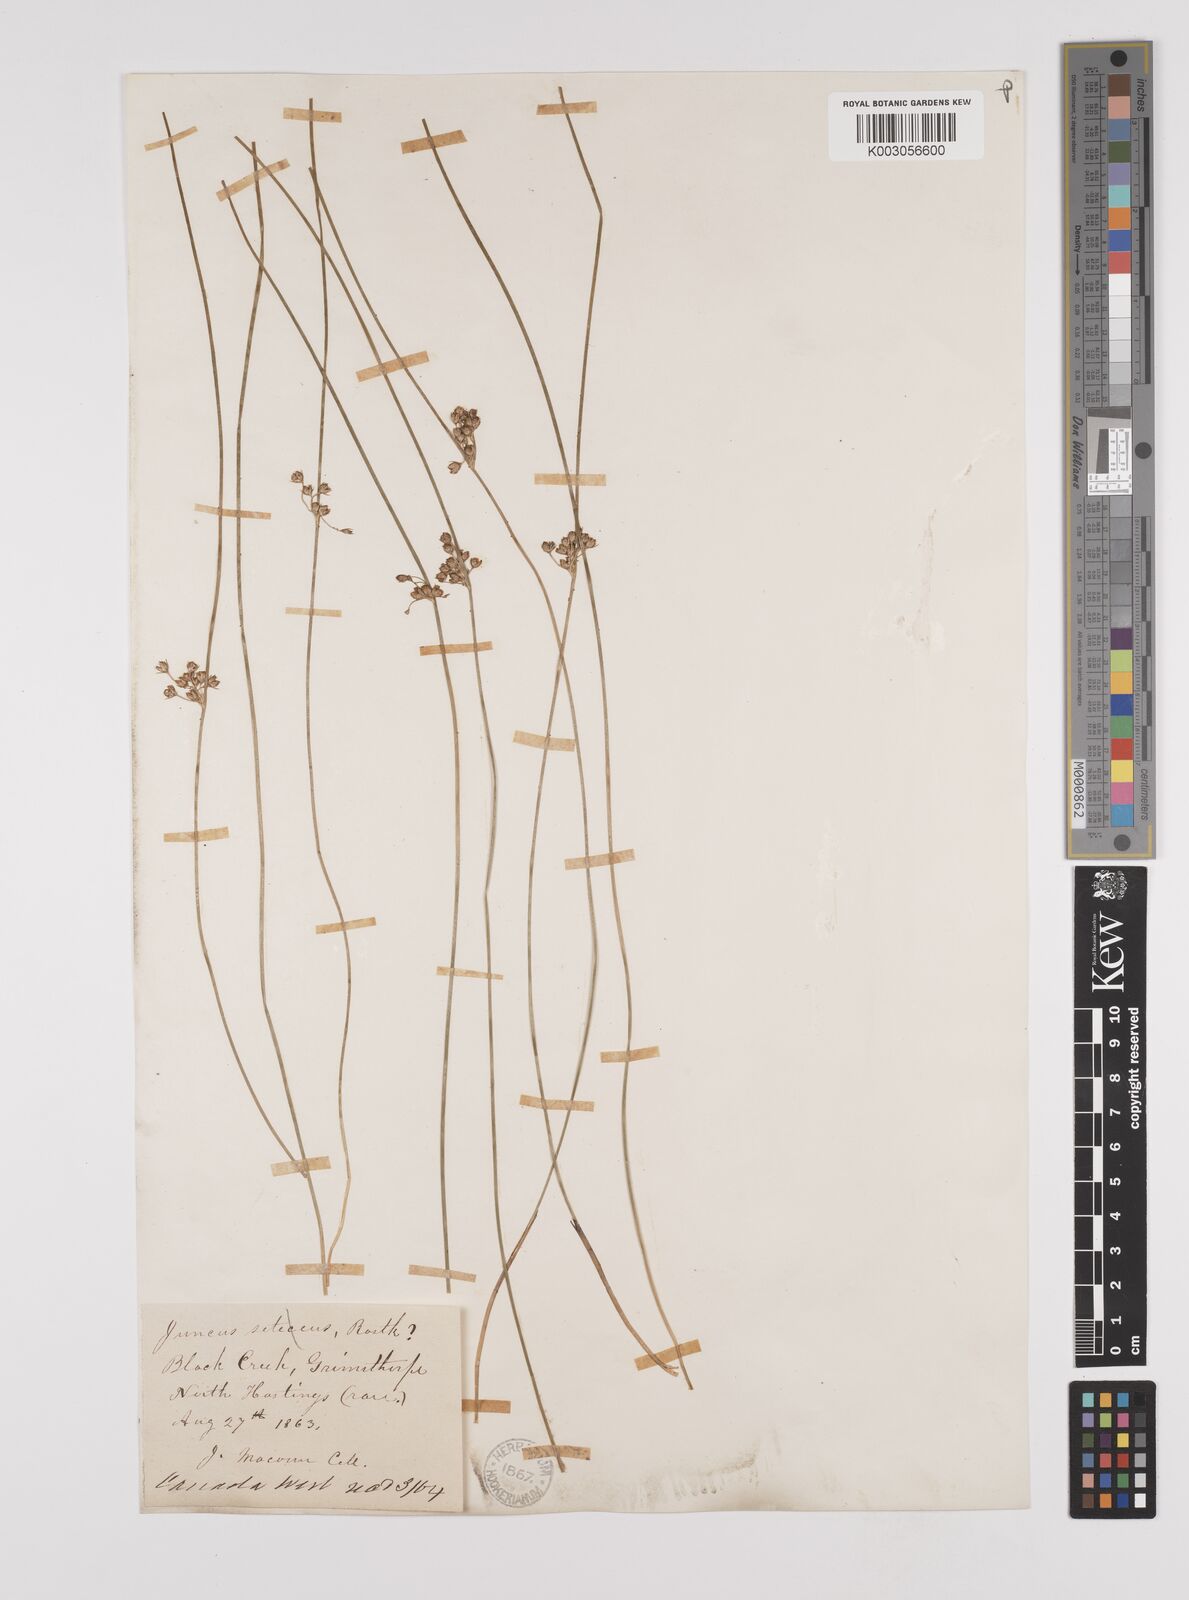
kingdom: Plantae
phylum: Tracheophyta
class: Liliopsida
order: Poales
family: Juncaceae
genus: Juncus
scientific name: Juncus filiformis
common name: Thread rush
